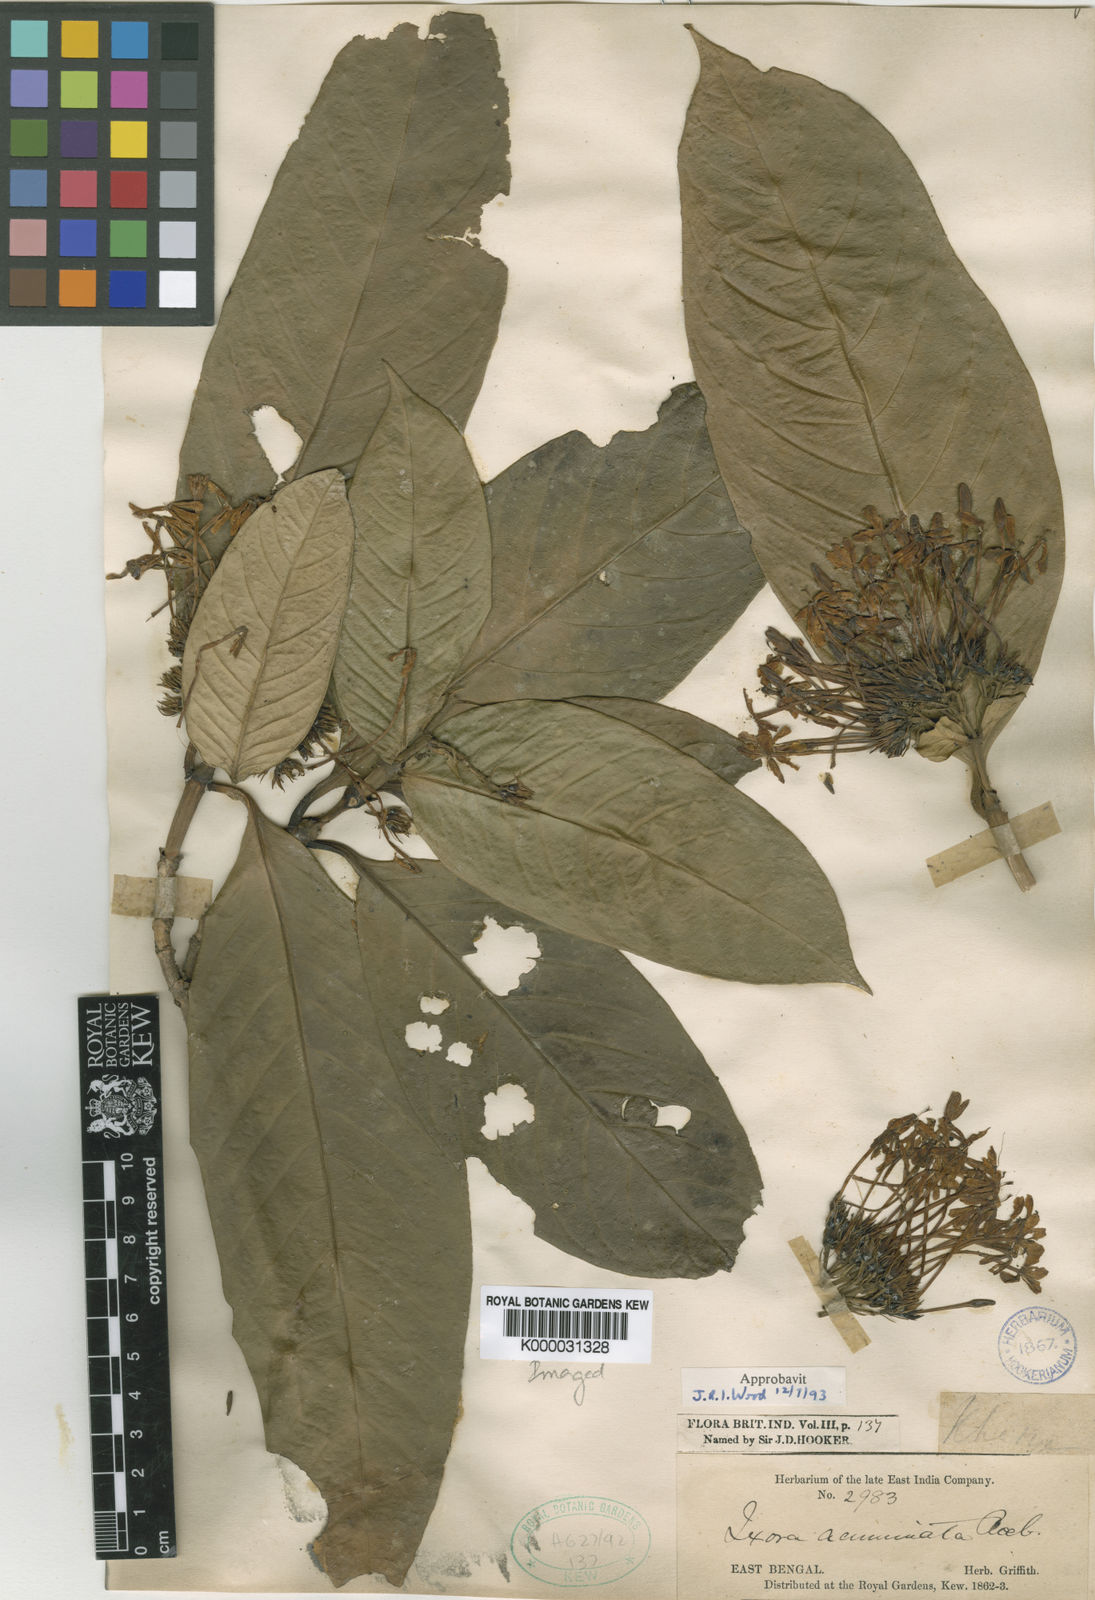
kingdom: Plantae
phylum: Tracheophyta
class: Magnoliopsida
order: Gentianales
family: Rubiaceae
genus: Ixora
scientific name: Ixora acuminata
